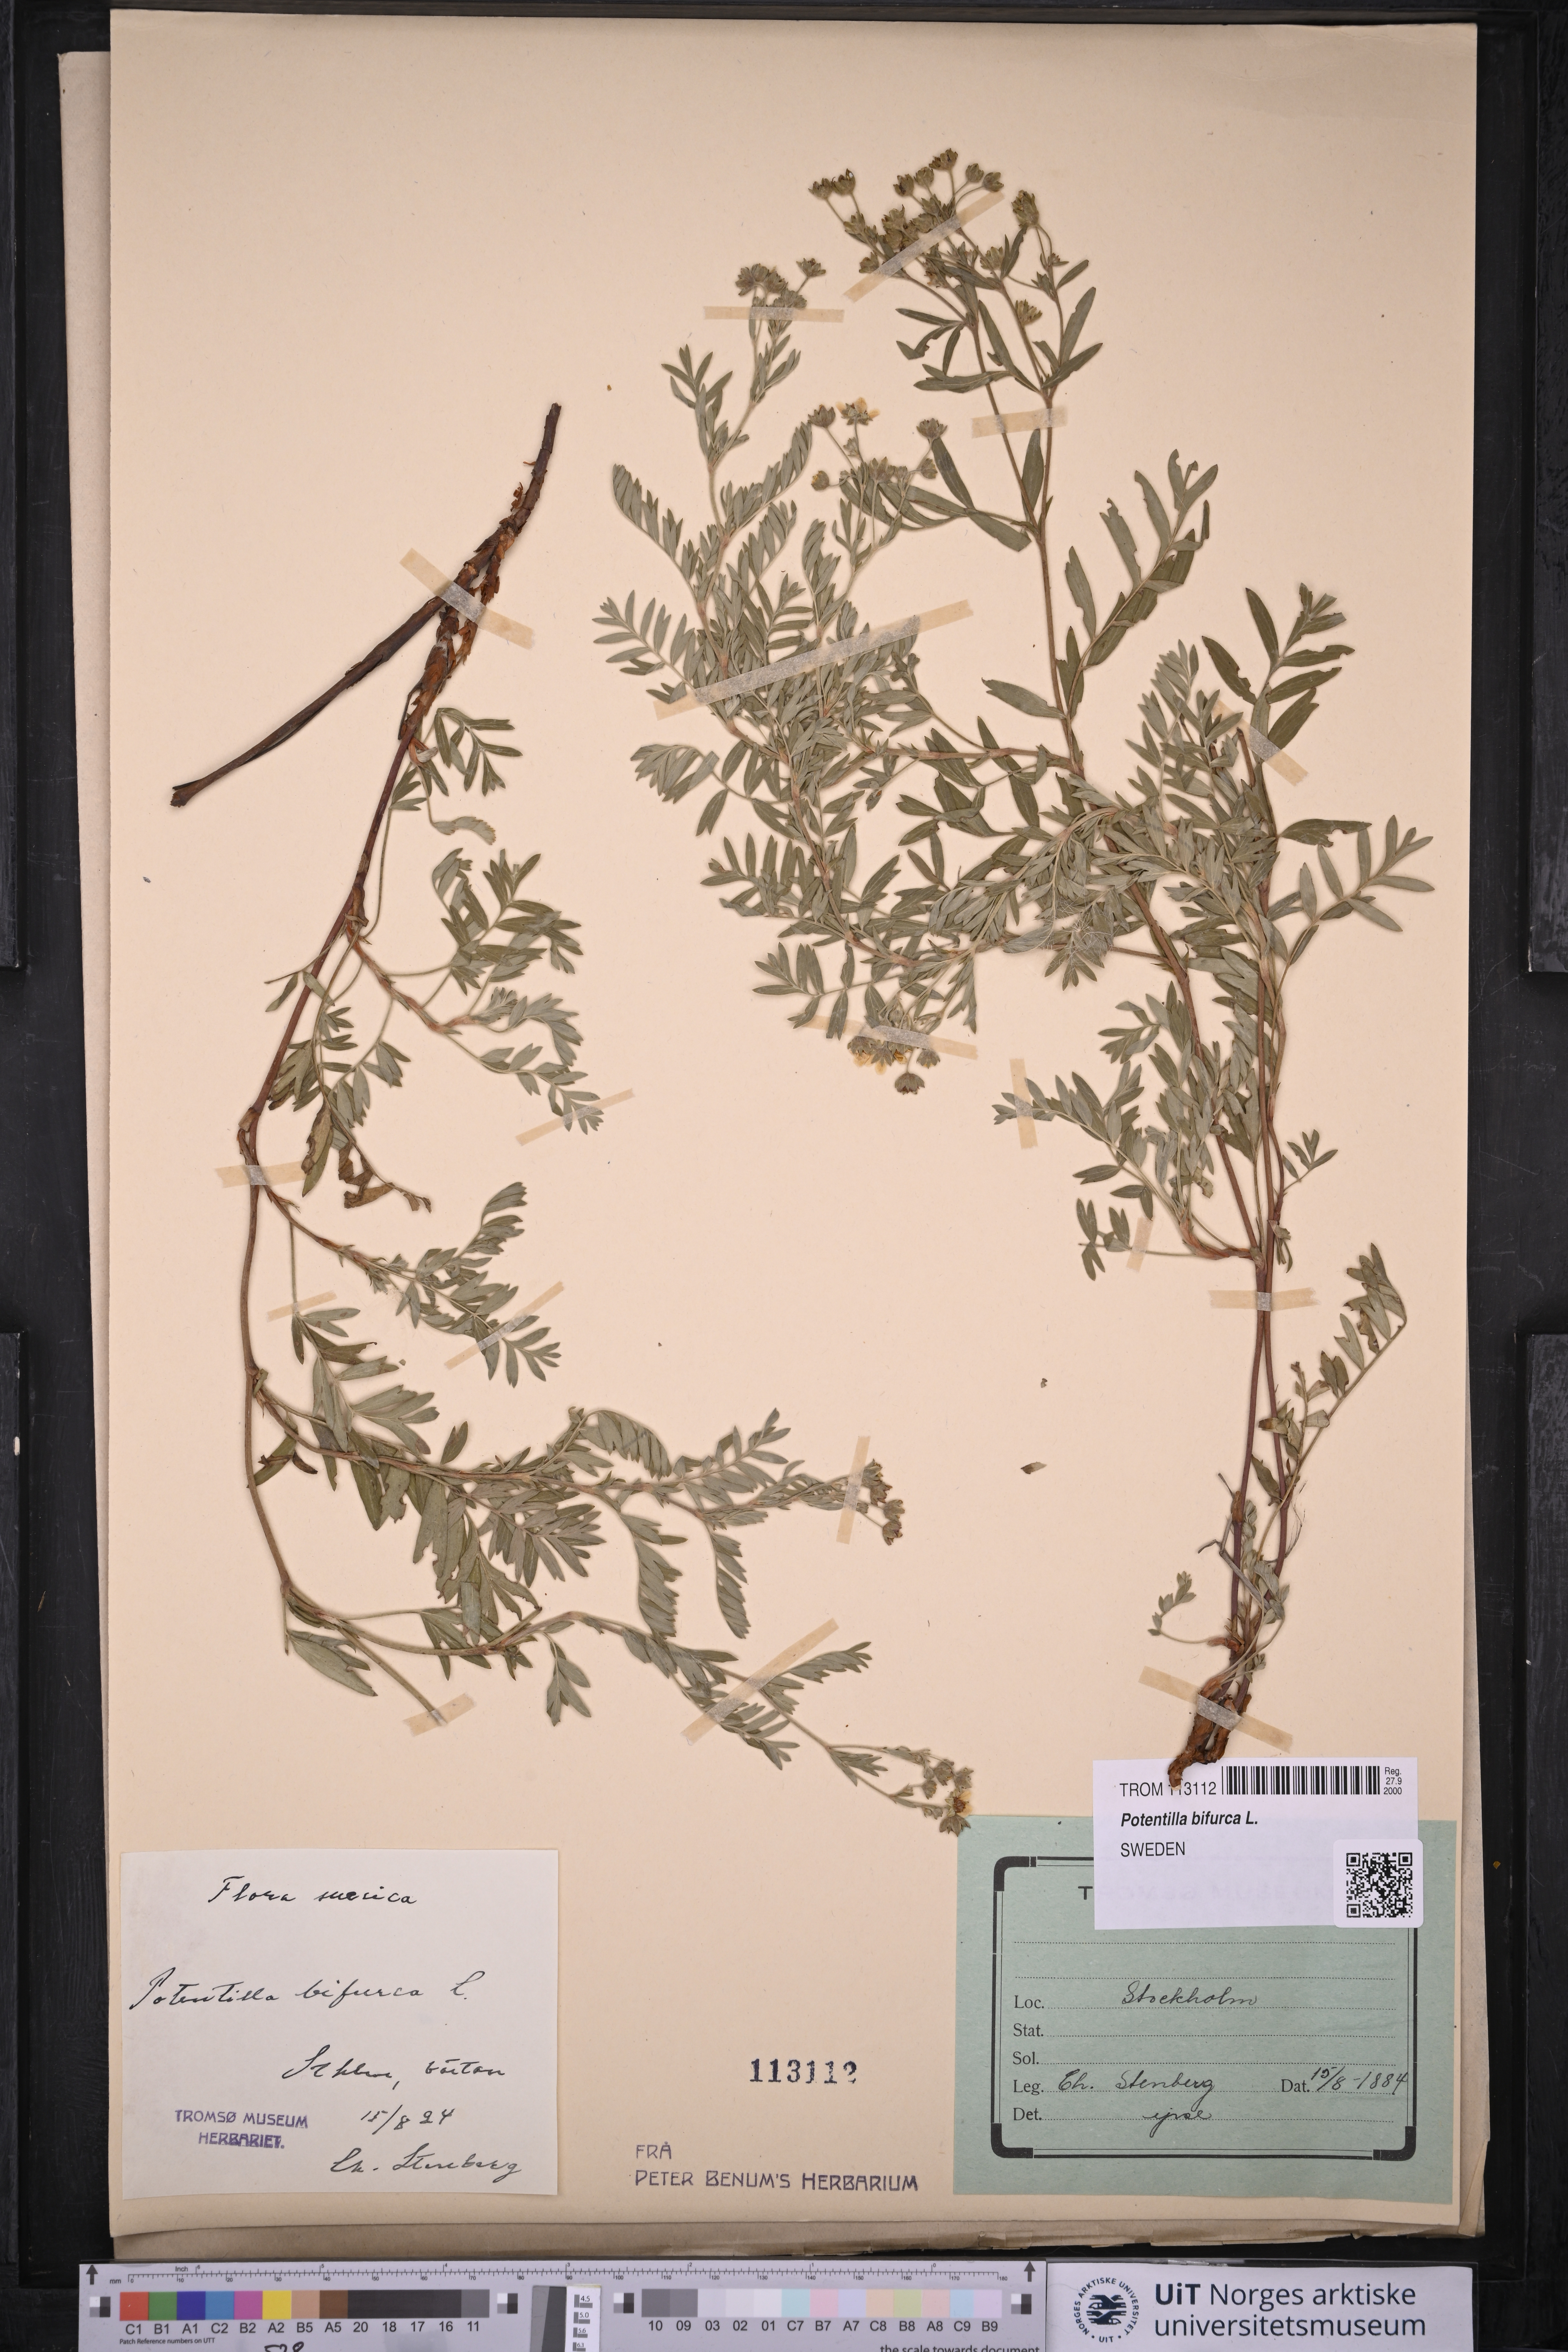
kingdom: Plantae
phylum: Tracheophyta
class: Magnoliopsida
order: Rosales
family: Rosaceae
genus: Sibbaldianthe
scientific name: Sibbaldianthe bifurca
